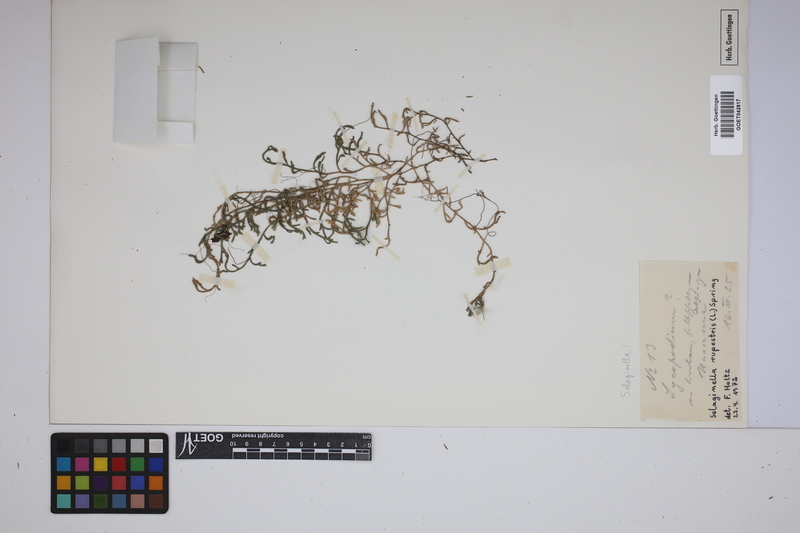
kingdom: Plantae
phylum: Tracheophyta
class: Lycopodiopsida
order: Selaginellales
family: Selaginellaceae
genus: Selaginella
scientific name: Selaginella rupestris
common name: Dwarf spikemoss
